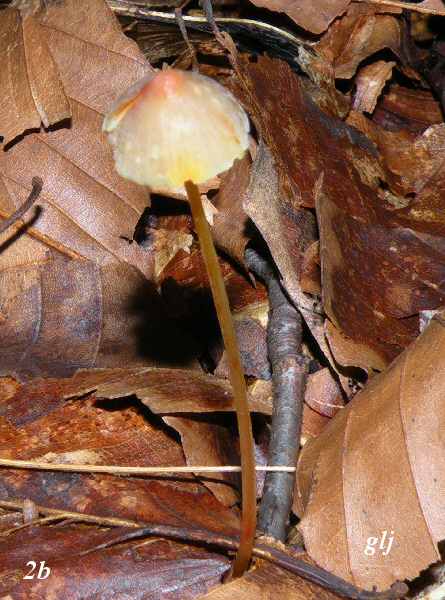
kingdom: Fungi
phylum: Basidiomycota
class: Agaricomycetes
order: Agaricales
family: Mycenaceae
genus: Mycena
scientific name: Mycena crocata
